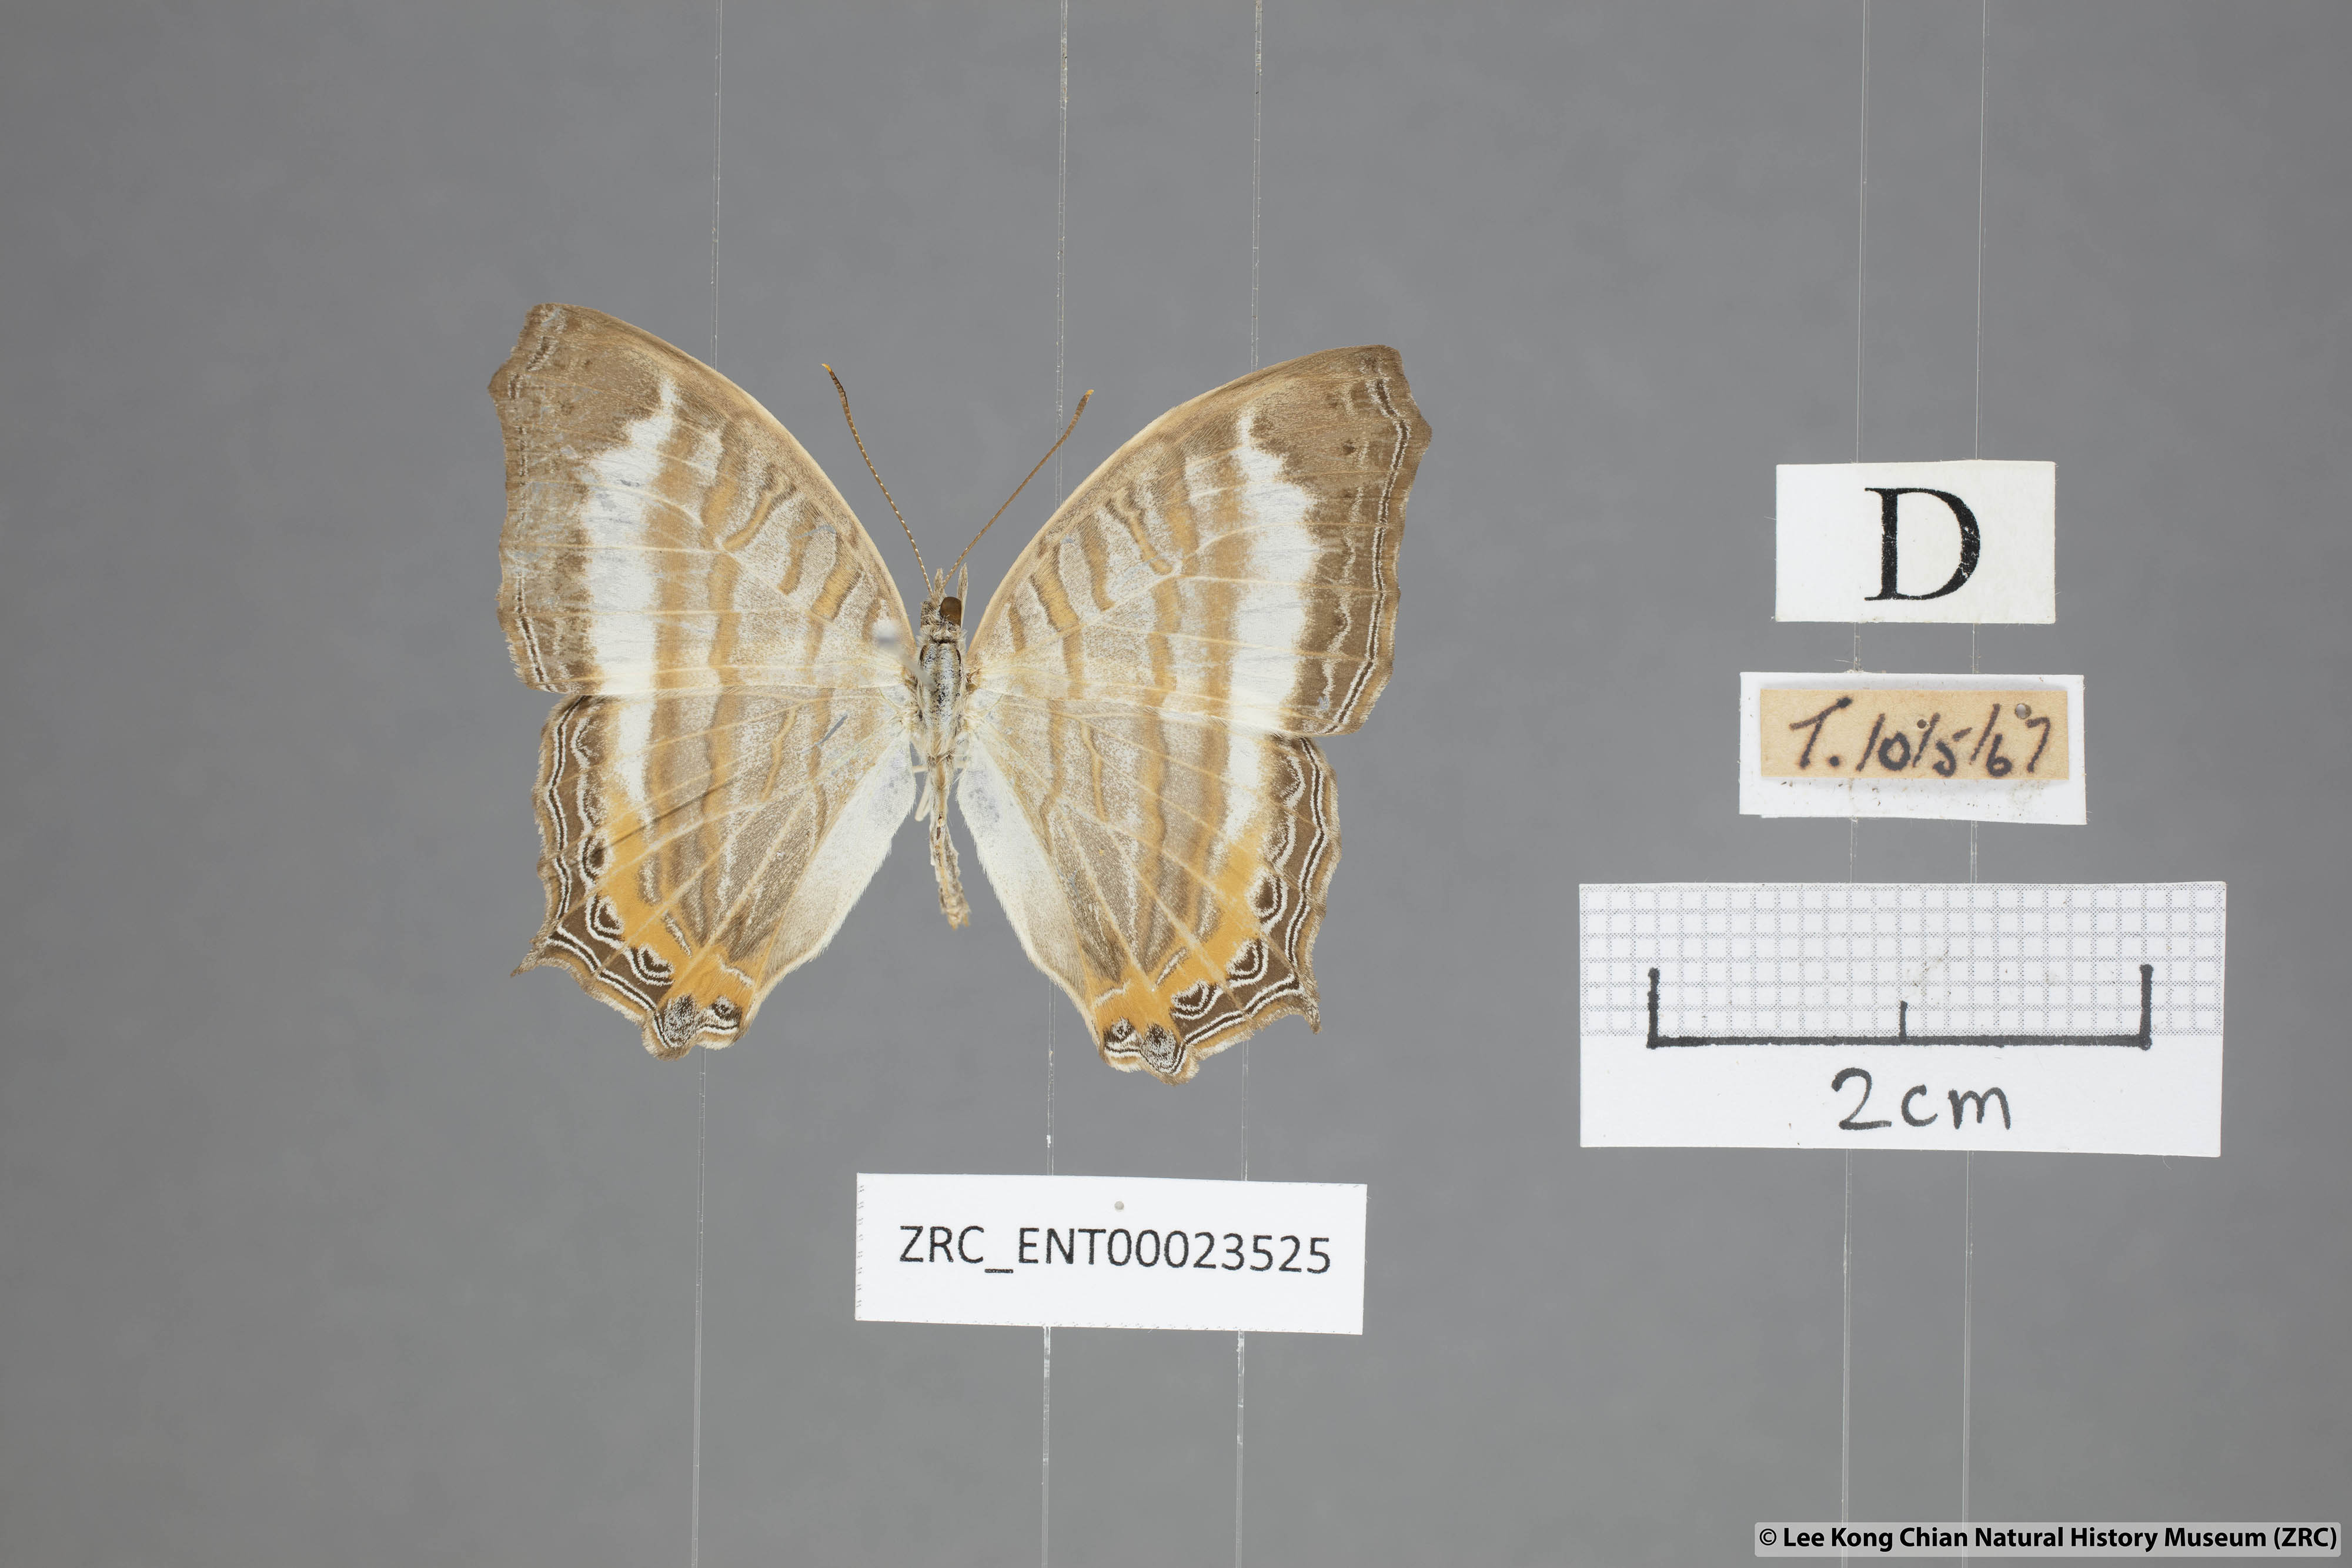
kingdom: Animalia
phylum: Arthropoda
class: Insecta
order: Lepidoptera
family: Nymphalidae
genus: Cyrestis
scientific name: Cyrestis themire
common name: Little mapwing
